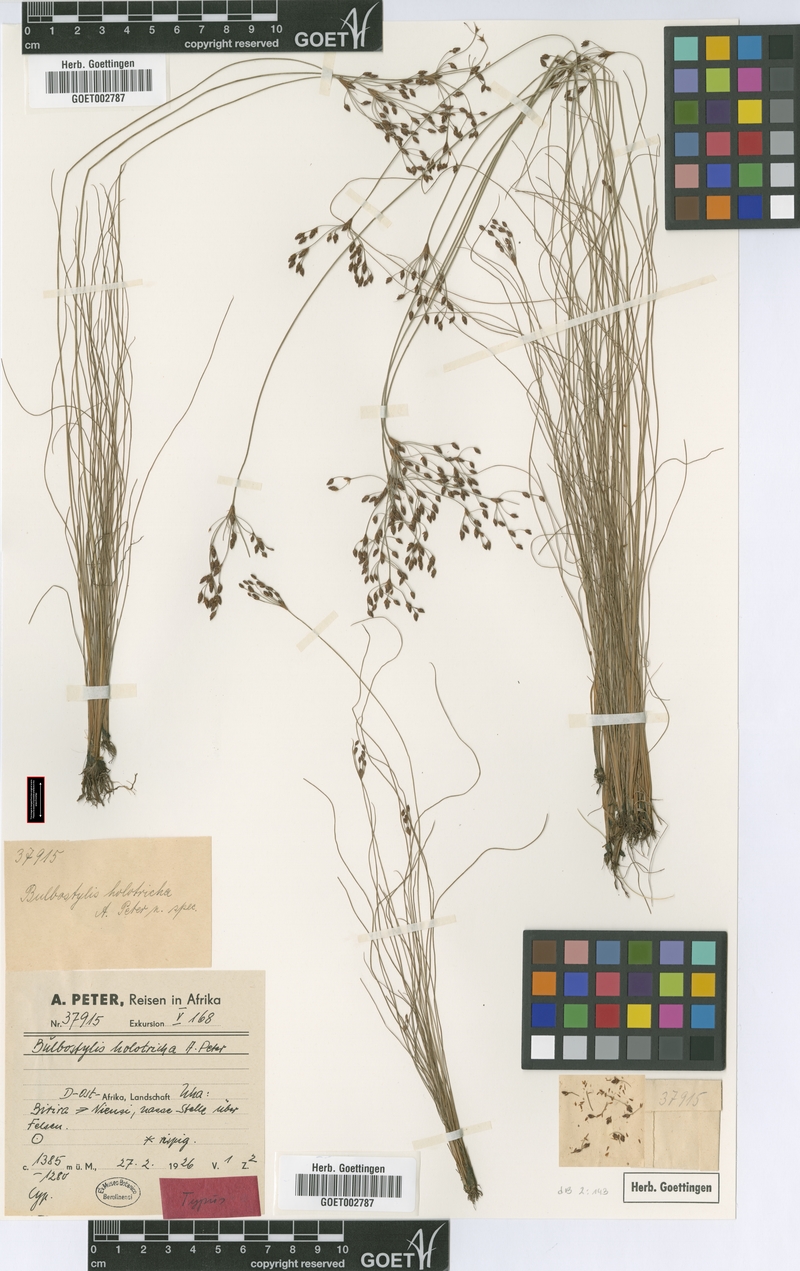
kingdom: Plantae
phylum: Tracheophyta
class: Liliopsida
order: Poales
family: Cyperaceae
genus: Bulbostylis
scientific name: Bulbostylis congolensis
